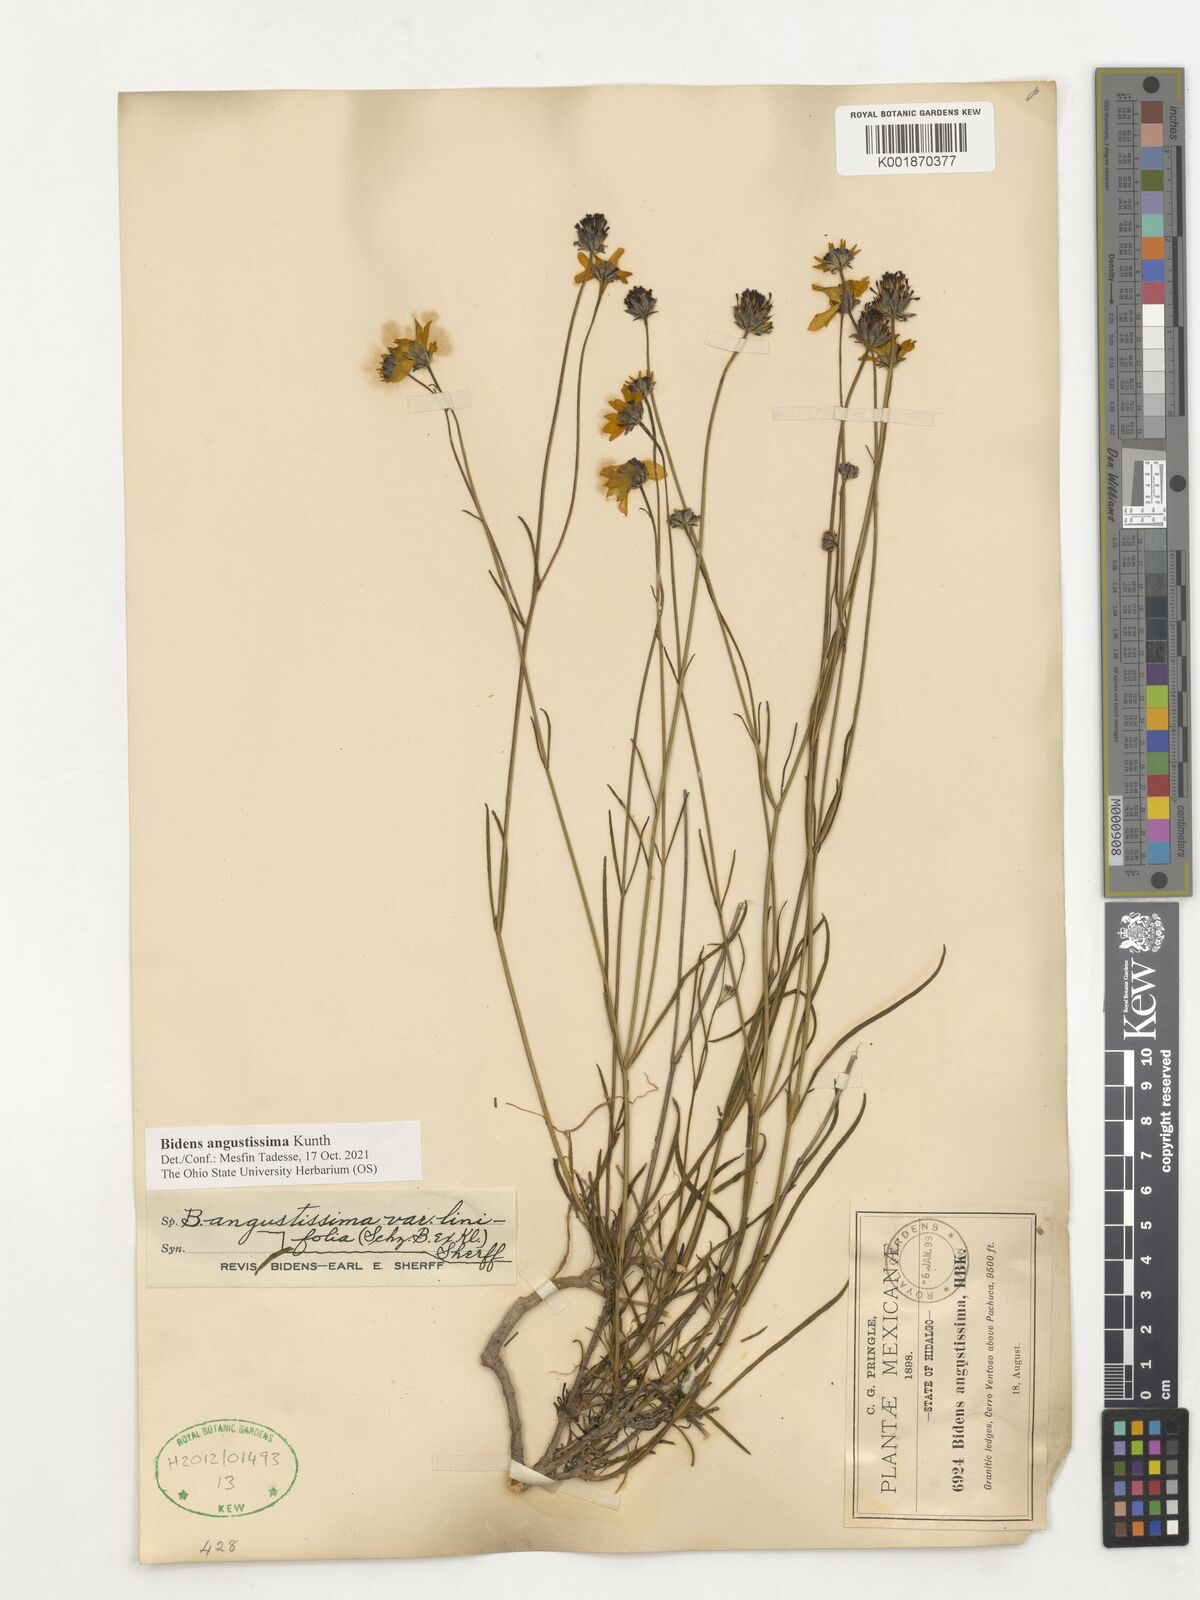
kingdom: Plantae
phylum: Tracheophyta
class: Magnoliopsida
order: Asterales
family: Asteraceae
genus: Bidens
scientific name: Bidens angustissima
